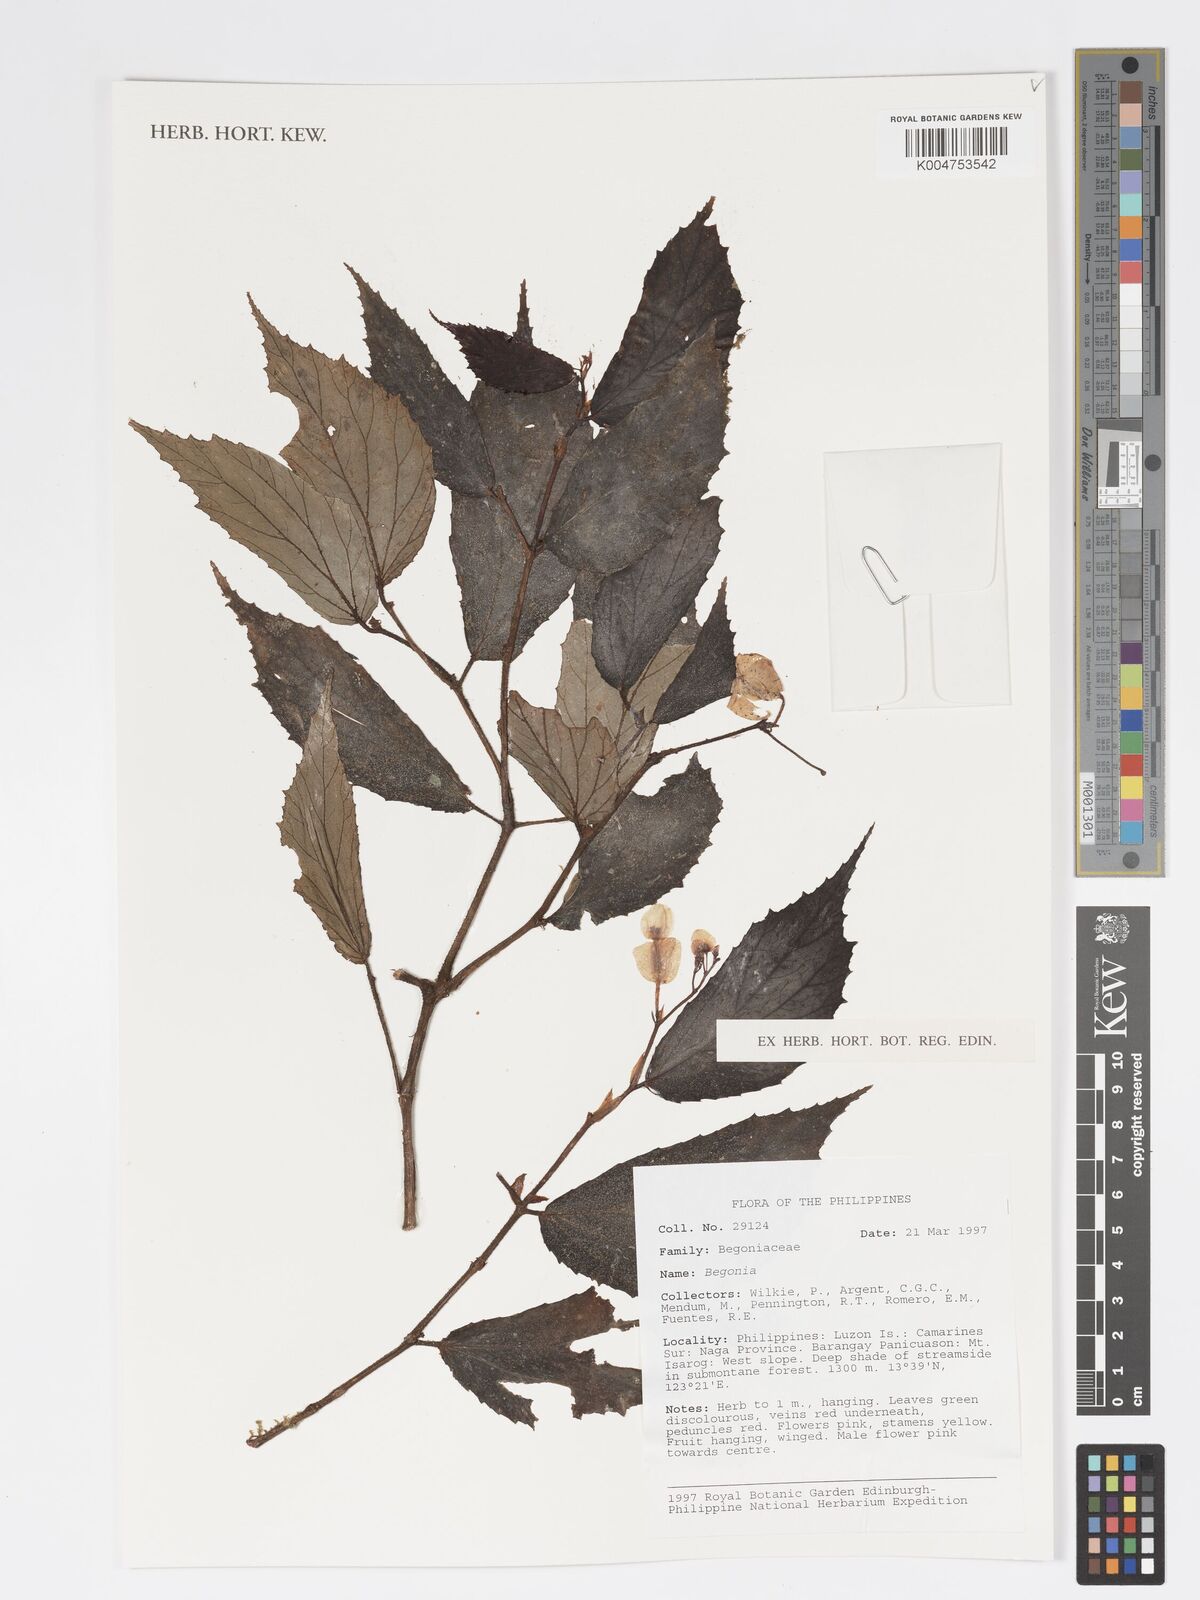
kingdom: Plantae
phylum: Tracheophyta
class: Magnoliopsida
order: Cucurbitales
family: Begoniaceae
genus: Begonia
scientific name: Begonia
